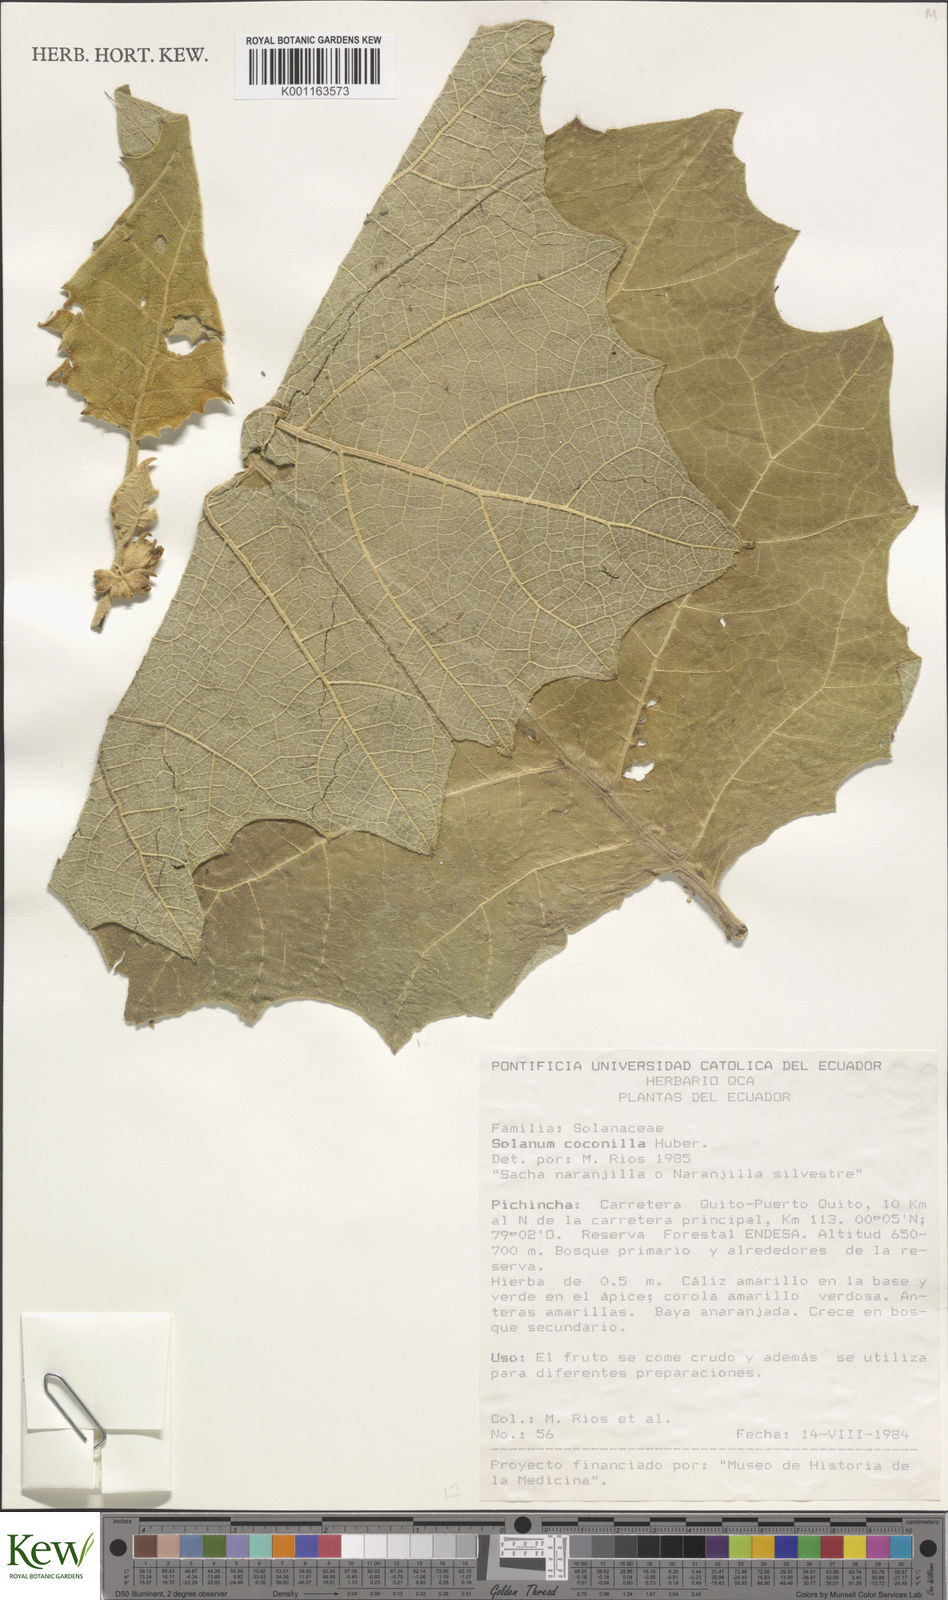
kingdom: Plantae
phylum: Tracheophyta
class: Magnoliopsida
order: Solanales
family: Solanaceae
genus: Solanum
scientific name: Solanum stramonifolium
